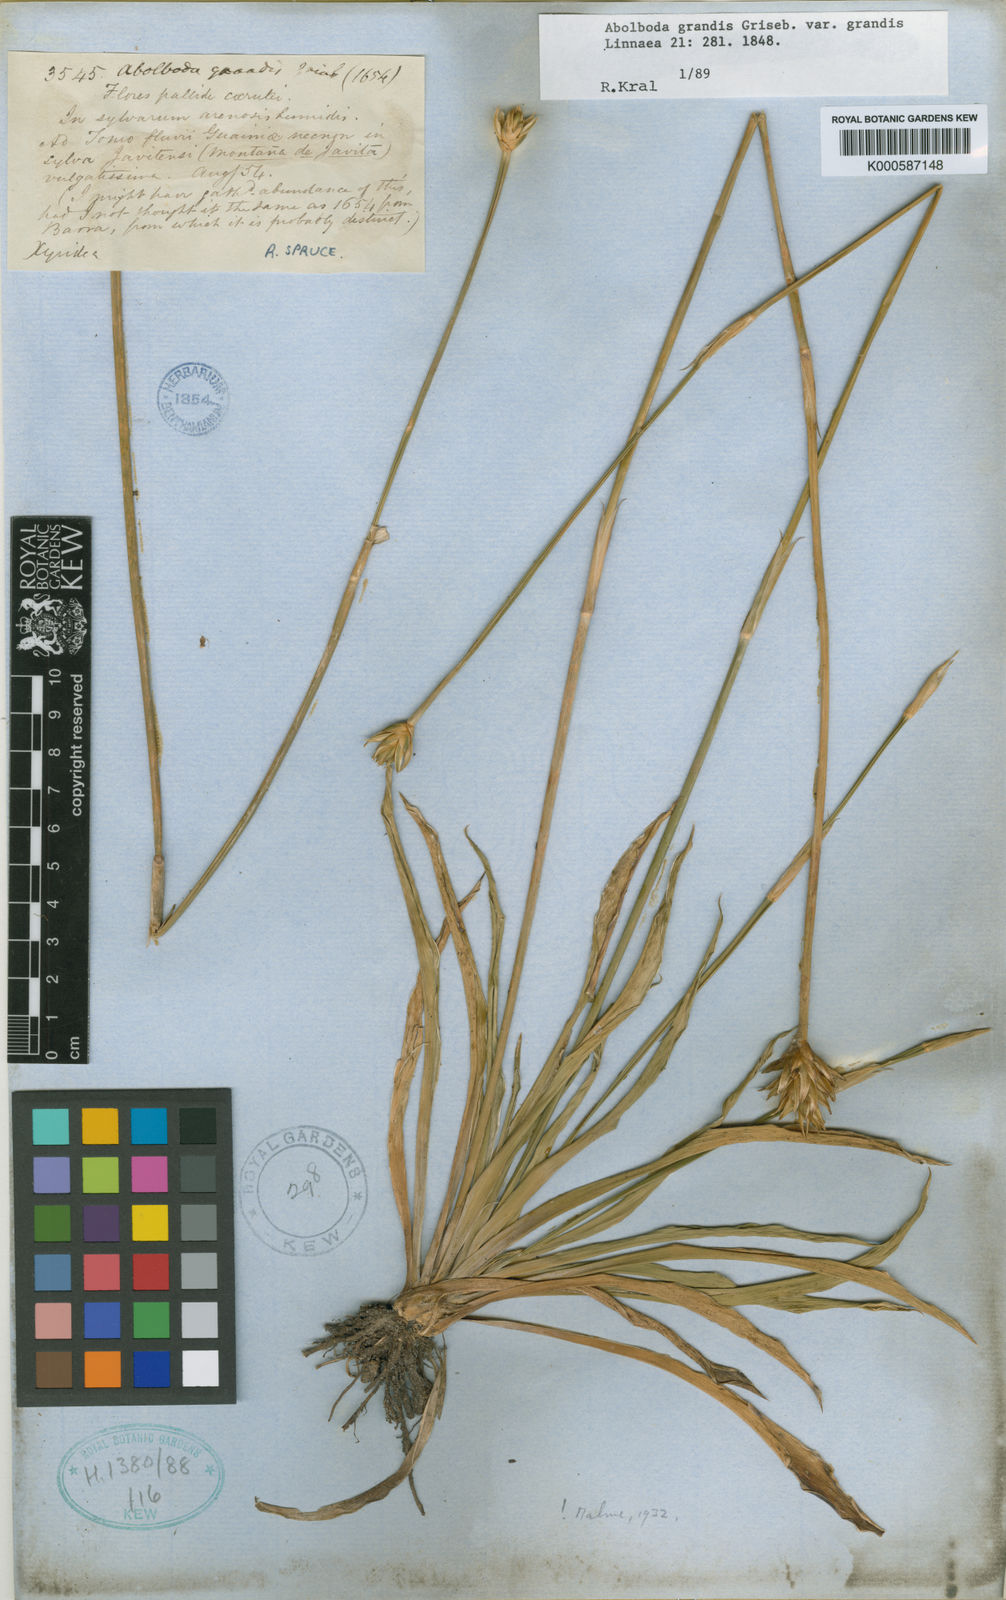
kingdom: Plantae
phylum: Tracheophyta
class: Liliopsida
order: Poales
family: Xyridaceae
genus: Abolboda
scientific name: Abolboda grandis
